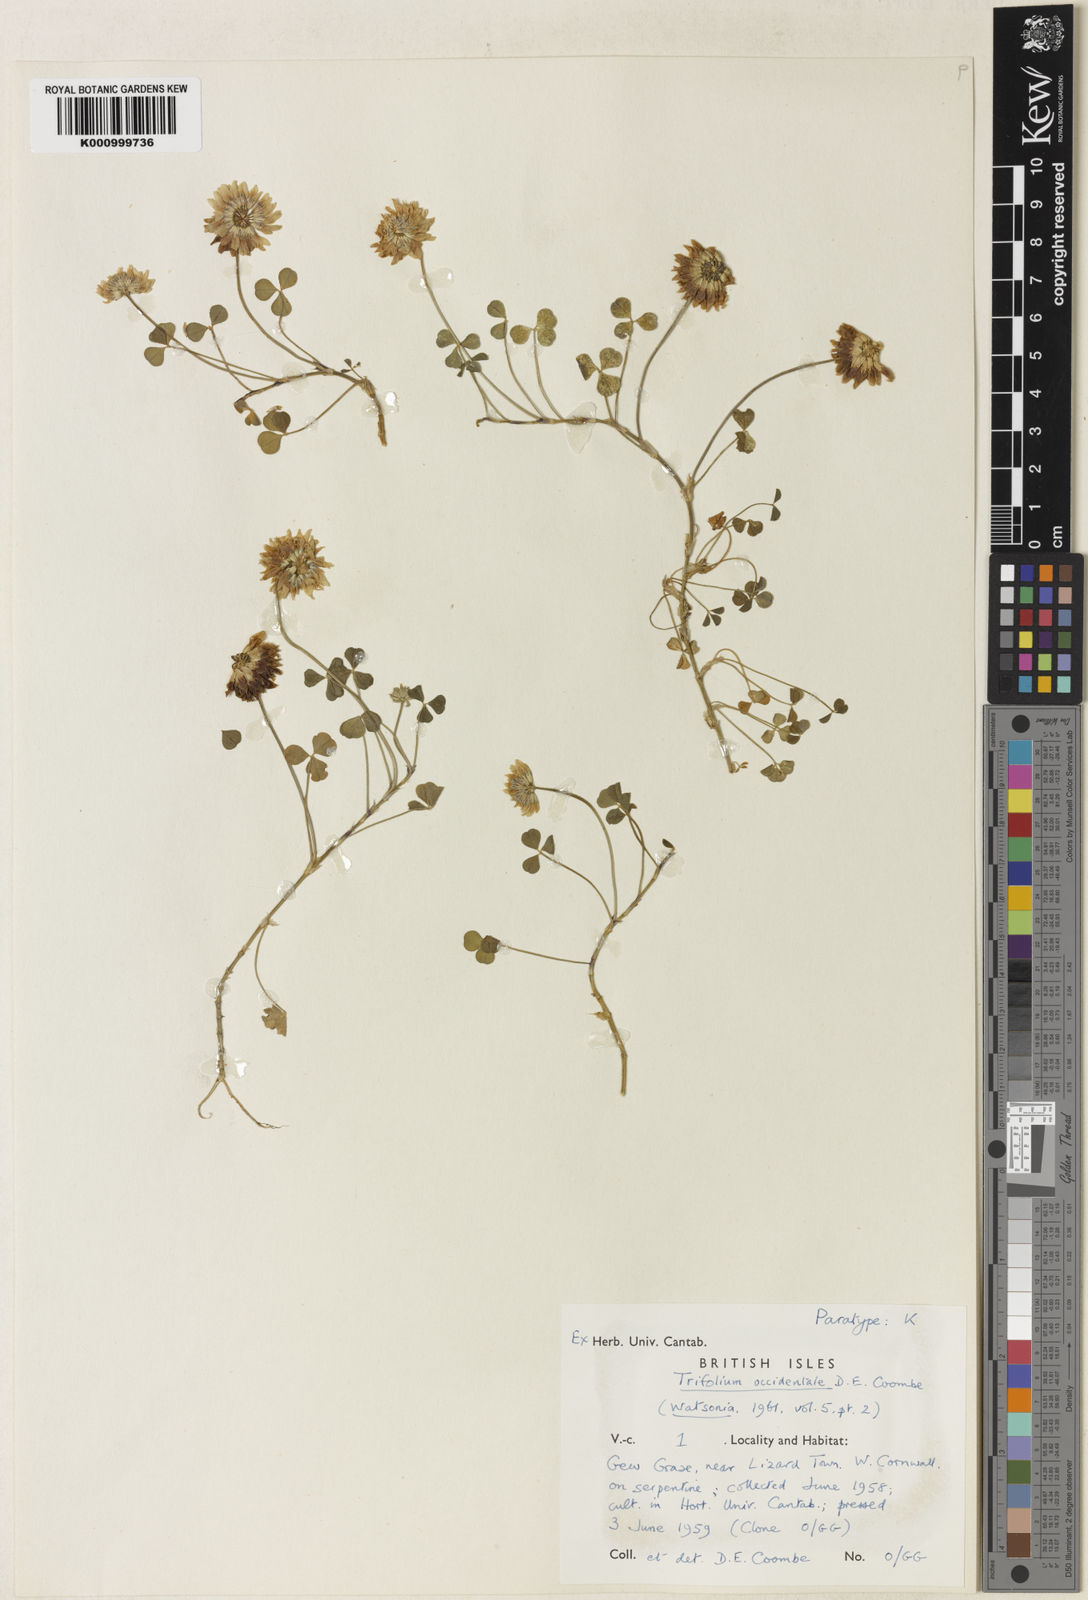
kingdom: Plantae
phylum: Tracheophyta
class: Magnoliopsida
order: Fabales
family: Fabaceae
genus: Trifolium
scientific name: Trifolium occidentale
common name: Western clover
